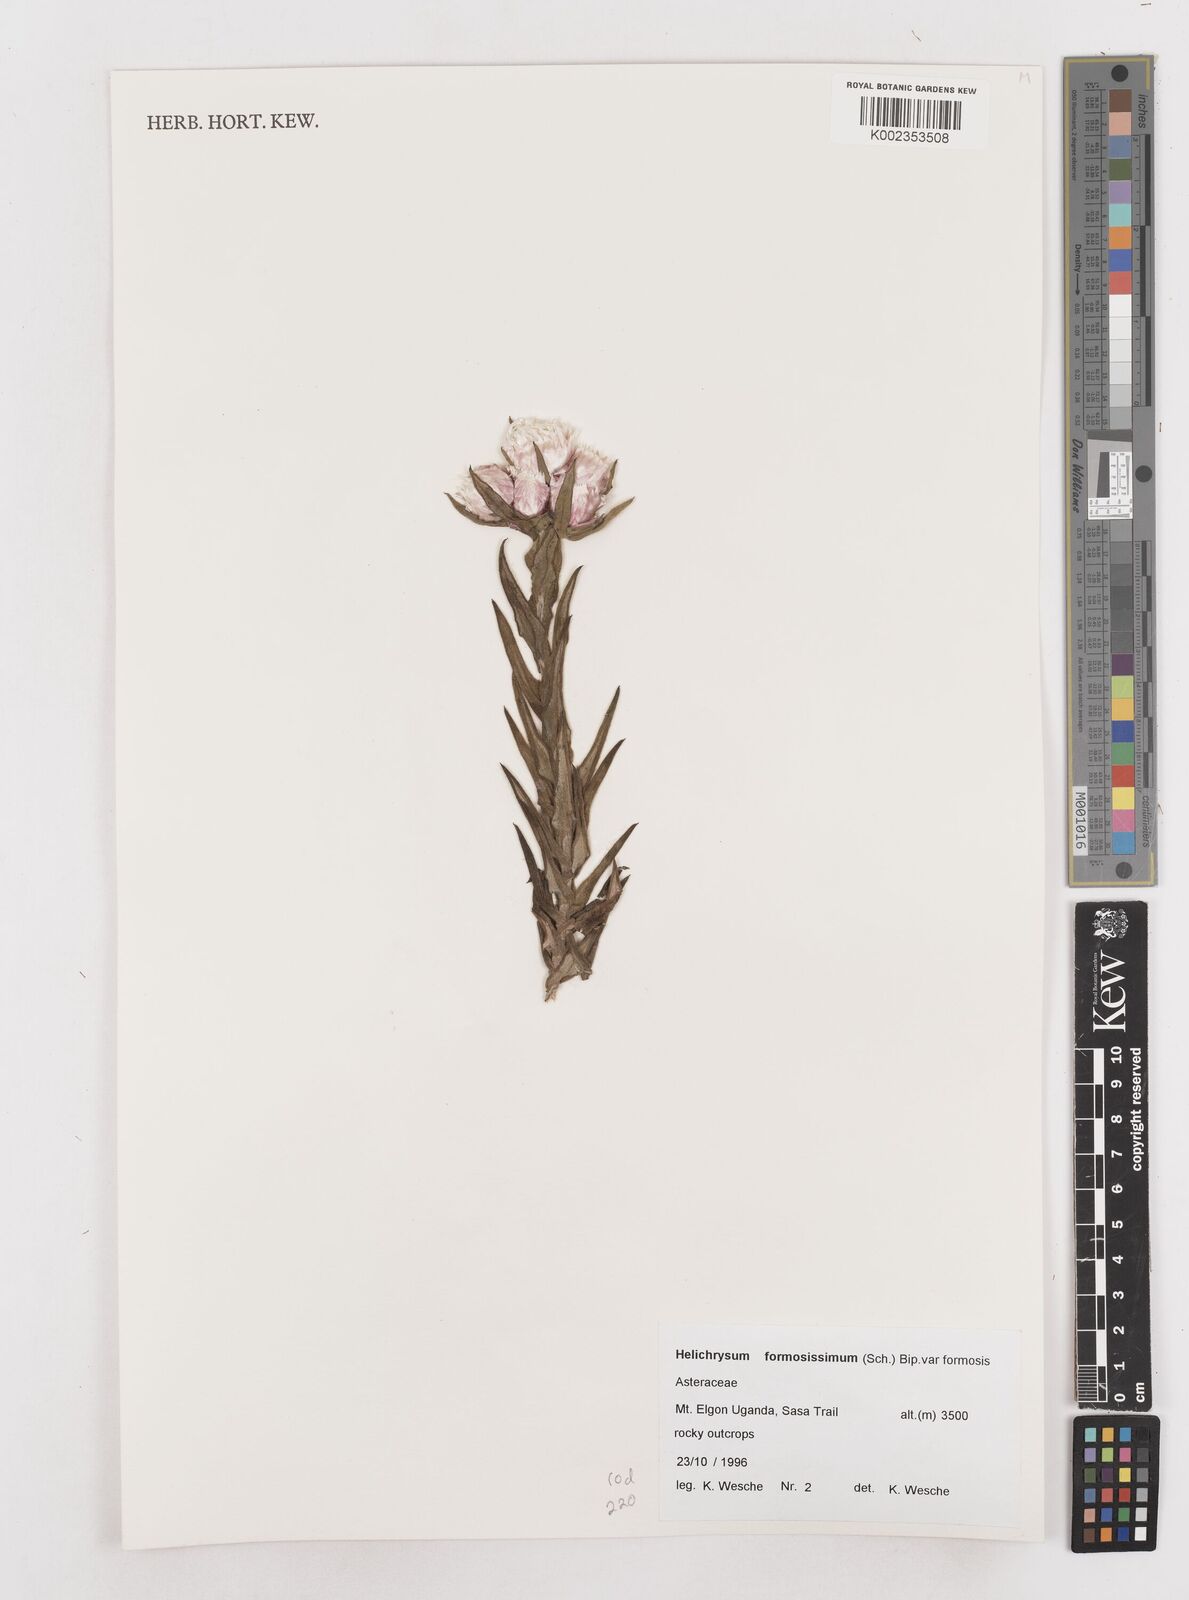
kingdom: Plantae
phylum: Tracheophyta
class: Magnoliopsida
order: Asterales
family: Asteraceae
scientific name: Asteraceae
